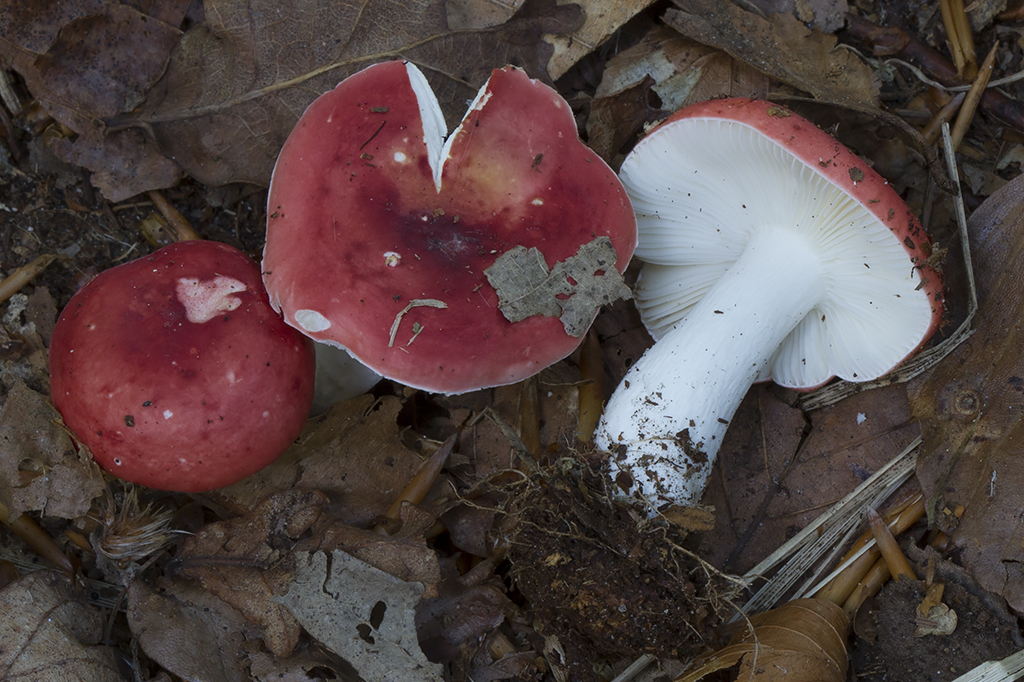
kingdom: Fungi
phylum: Basidiomycota
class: Agaricomycetes
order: Russulales
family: Russulaceae
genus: Russula
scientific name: Russula nobilis
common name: lille gift-skørhat
